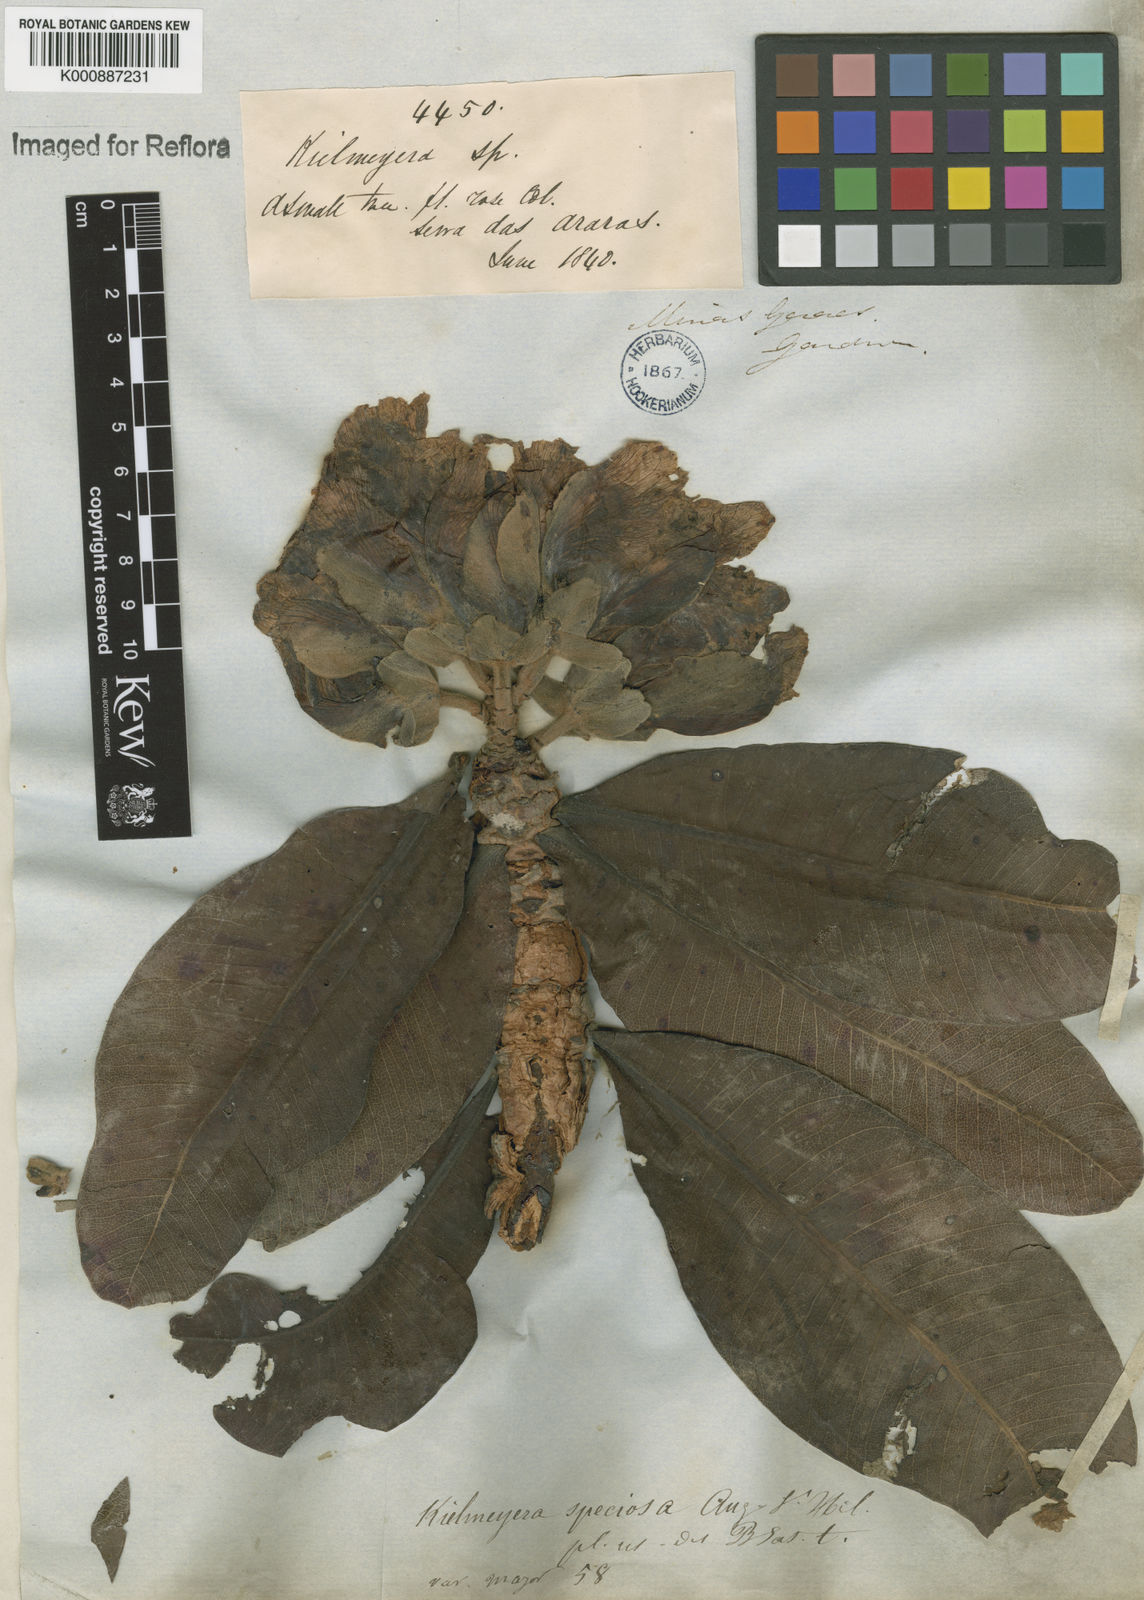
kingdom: Plantae
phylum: Tracheophyta
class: Magnoliopsida
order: Malpighiales
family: Calophyllaceae
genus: Kielmeyera
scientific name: Kielmeyera speciosa
